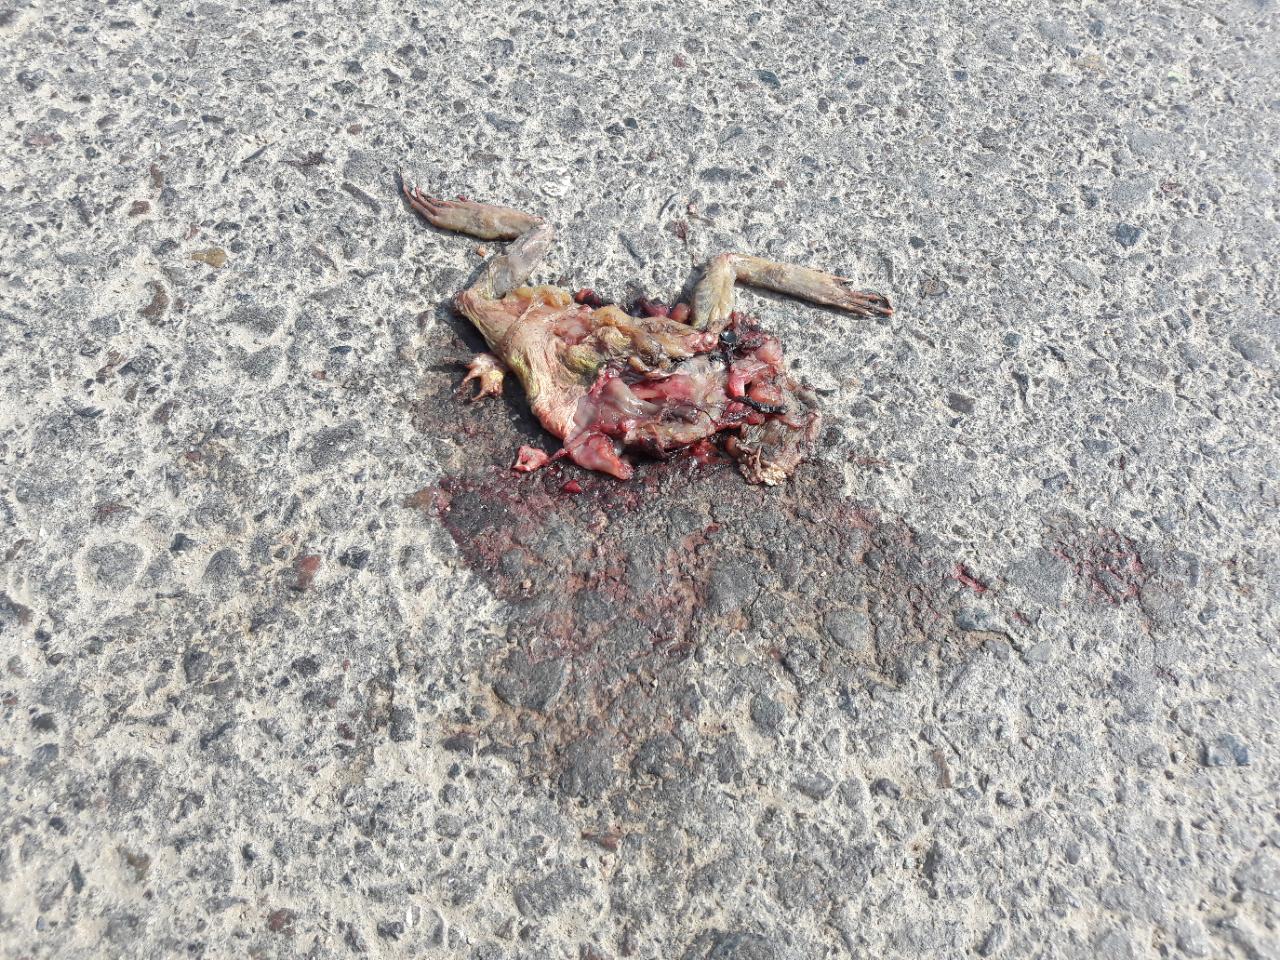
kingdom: Animalia
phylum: Chordata
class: Amphibia
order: Anura
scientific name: Anura
